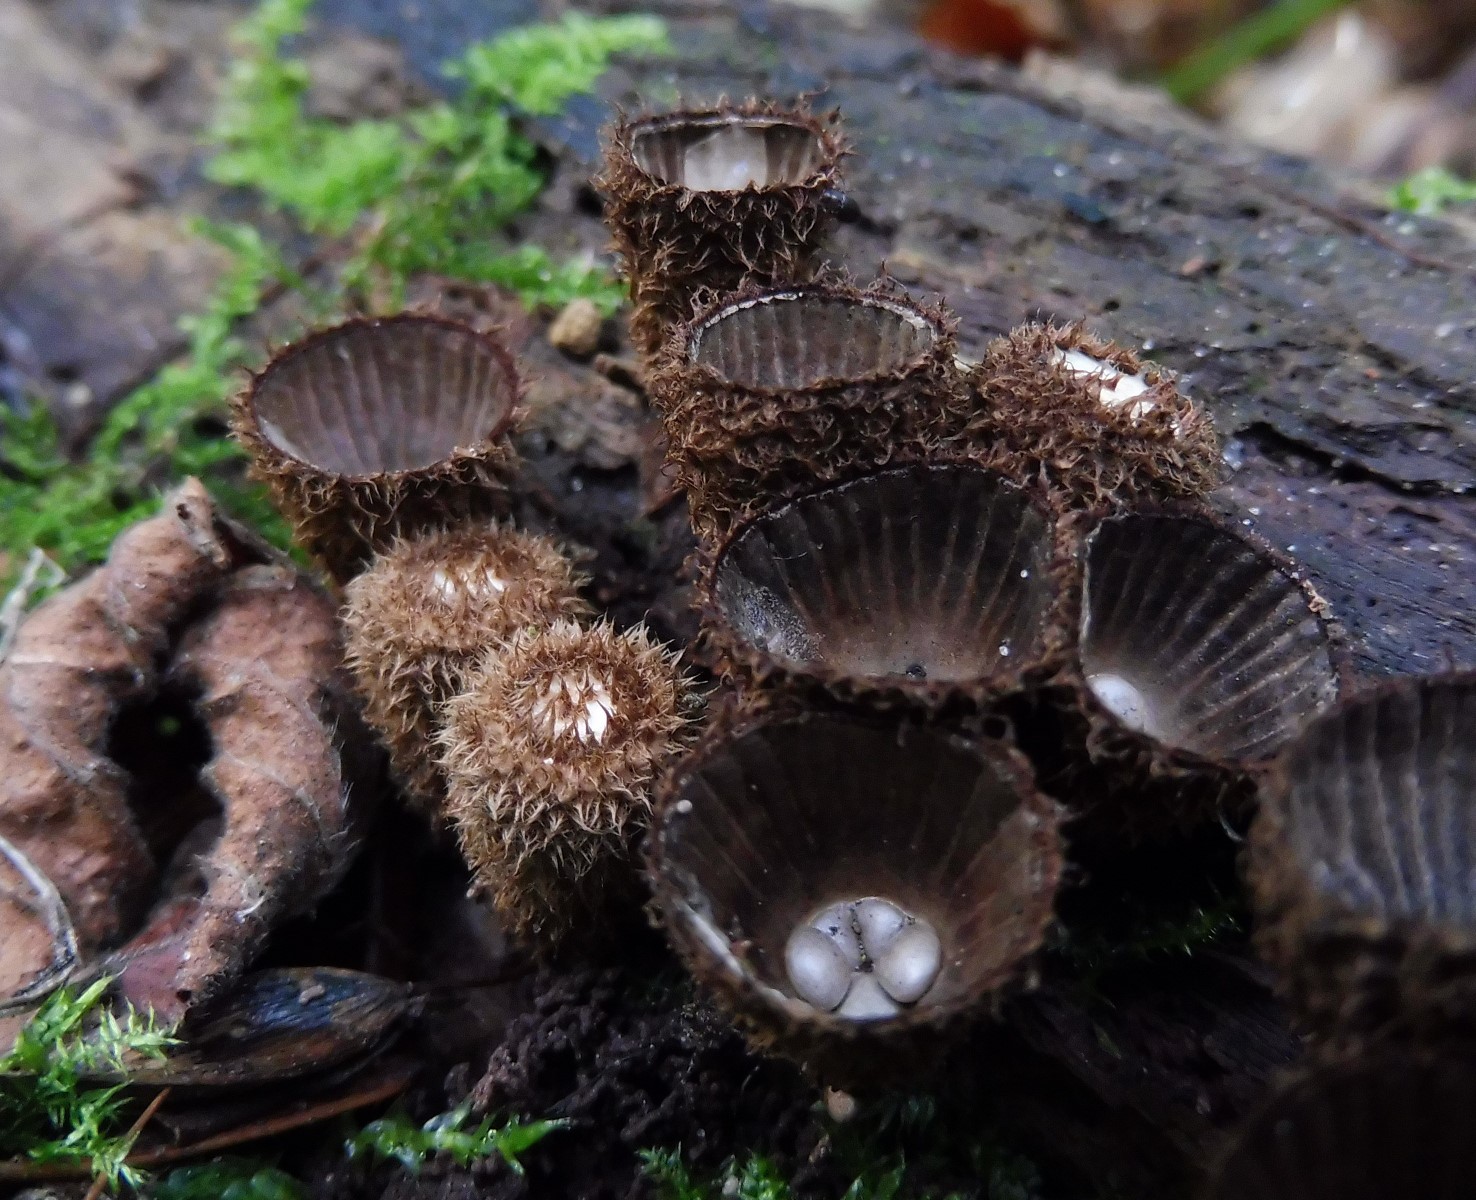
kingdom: Fungi
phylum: Basidiomycota
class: Agaricomycetes
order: Agaricales
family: Agaricaceae
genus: Cyathus
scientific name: Cyathus striatus
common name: stribet redesvamp
